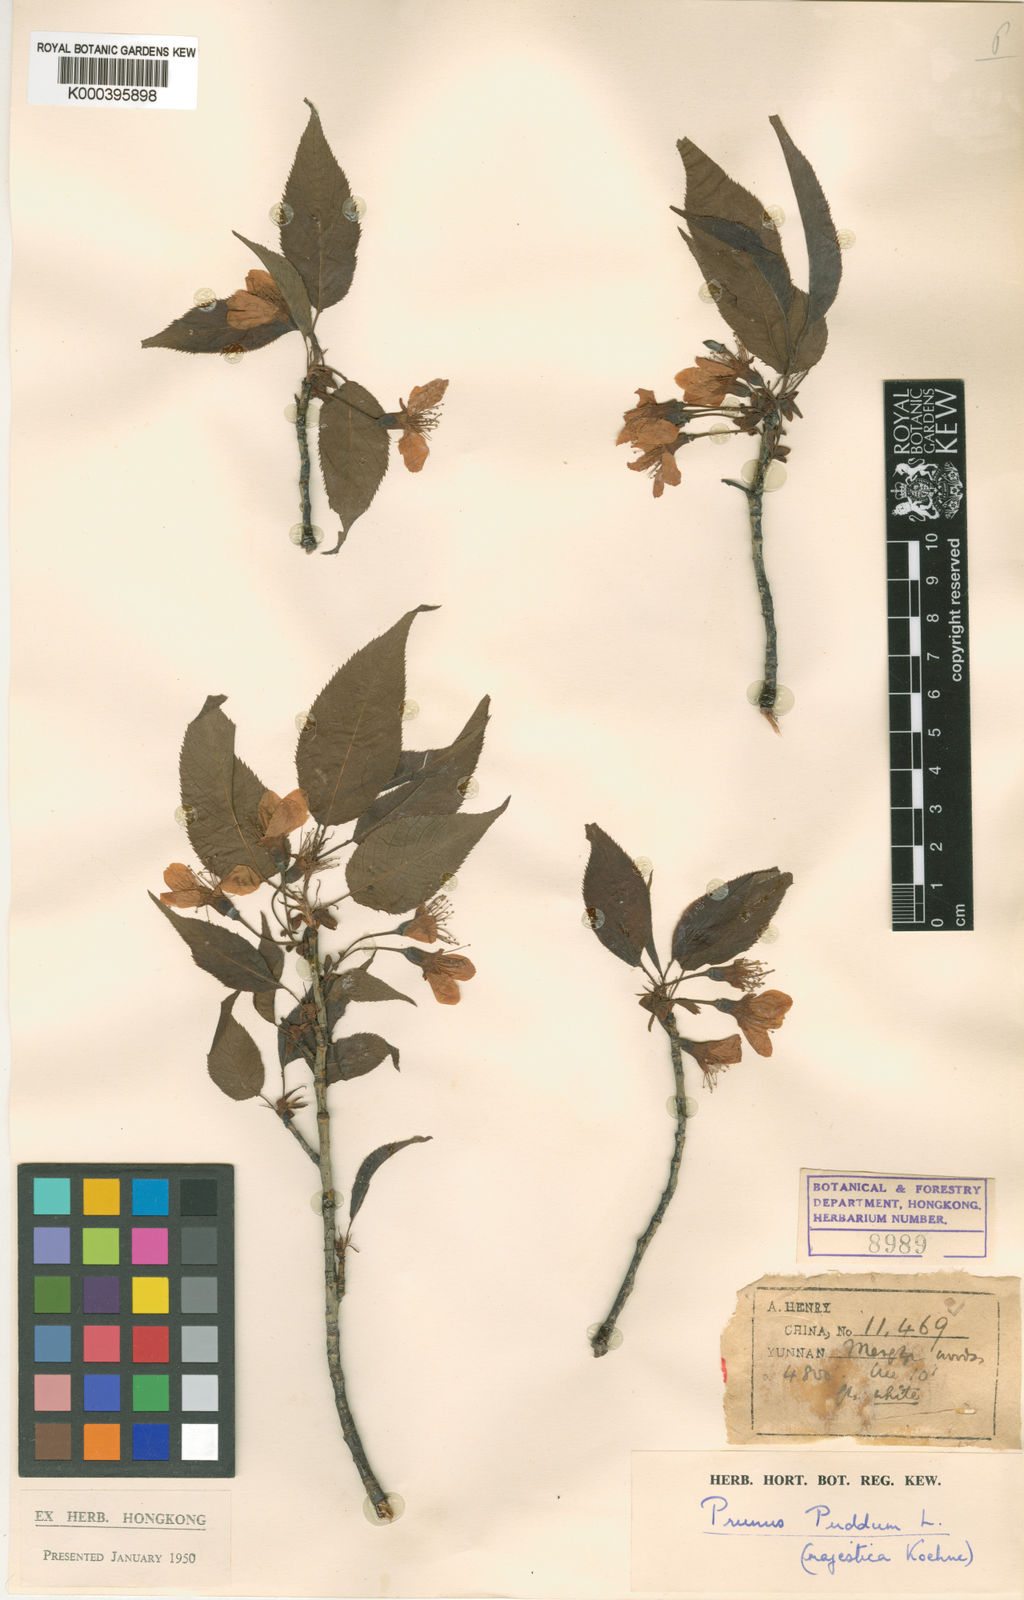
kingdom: Plantae
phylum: Tracheophyta
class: Magnoliopsida
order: Rosales
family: Rosaceae
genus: Prunus
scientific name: Prunus cerasoides
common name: Wild himalayan cherry
